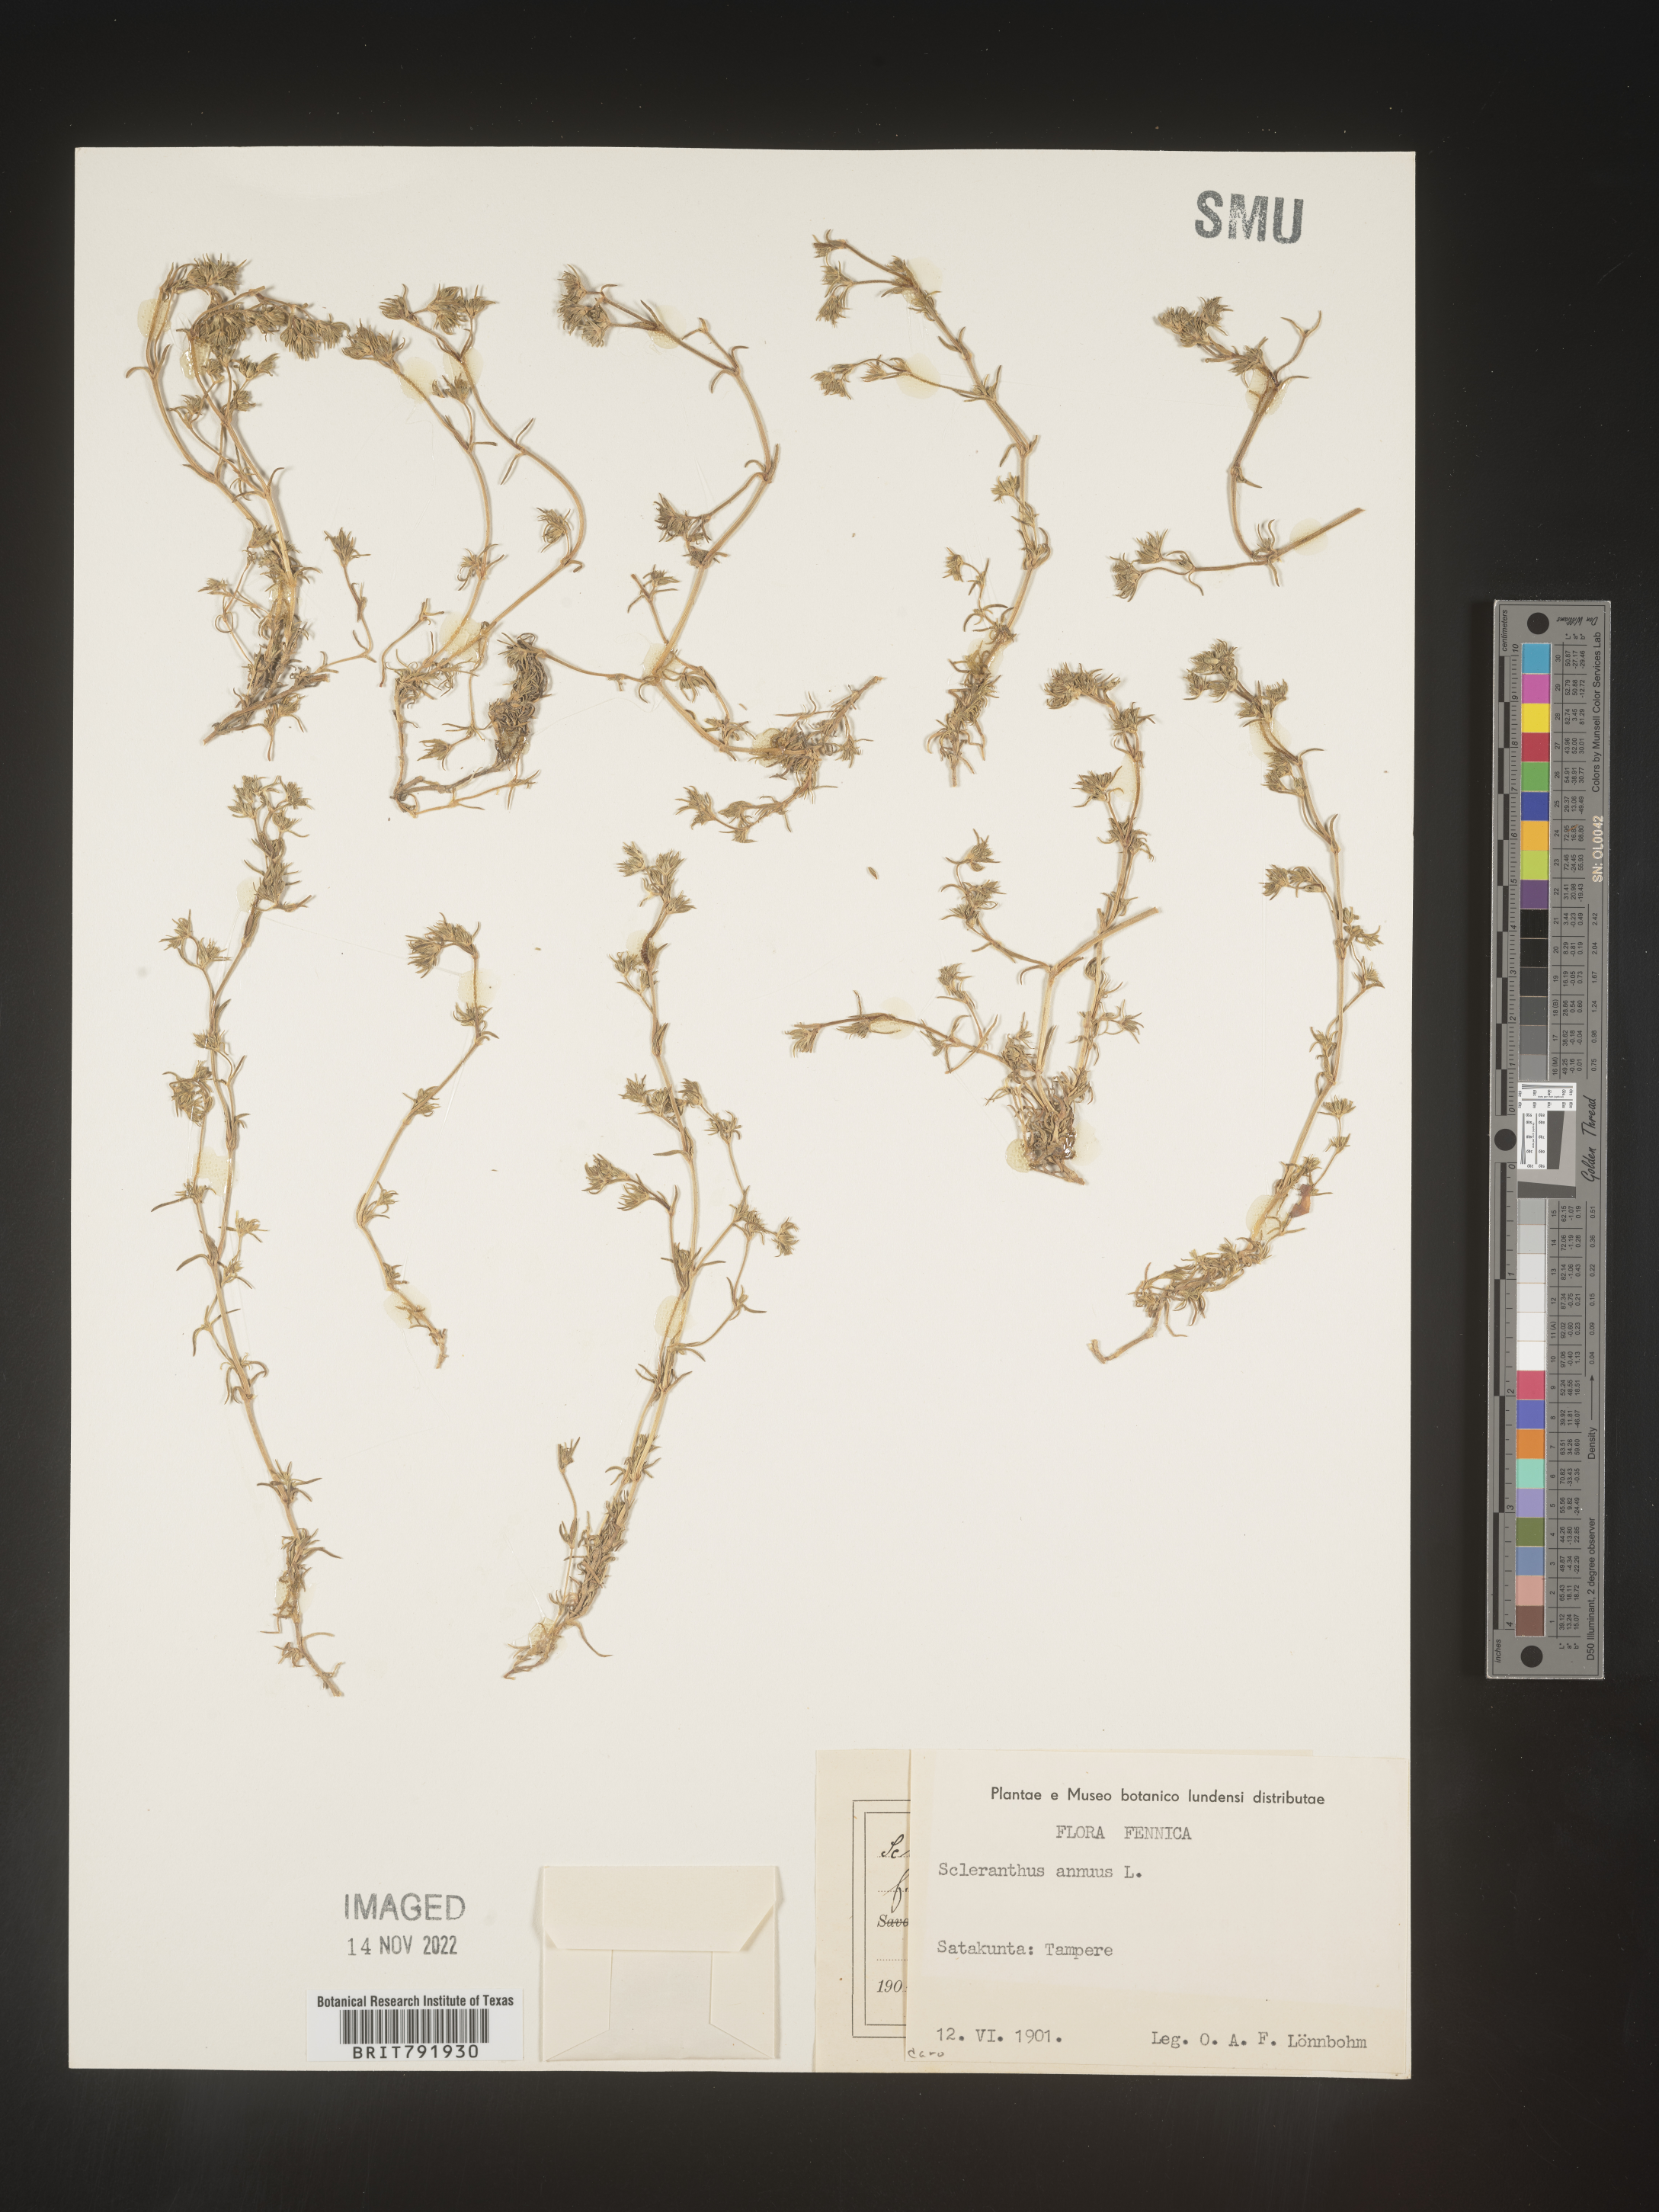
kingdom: Plantae
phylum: Tracheophyta
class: Magnoliopsida
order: Caryophyllales
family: Caryophyllaceae
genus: Scleranthus
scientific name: Scleranthus
